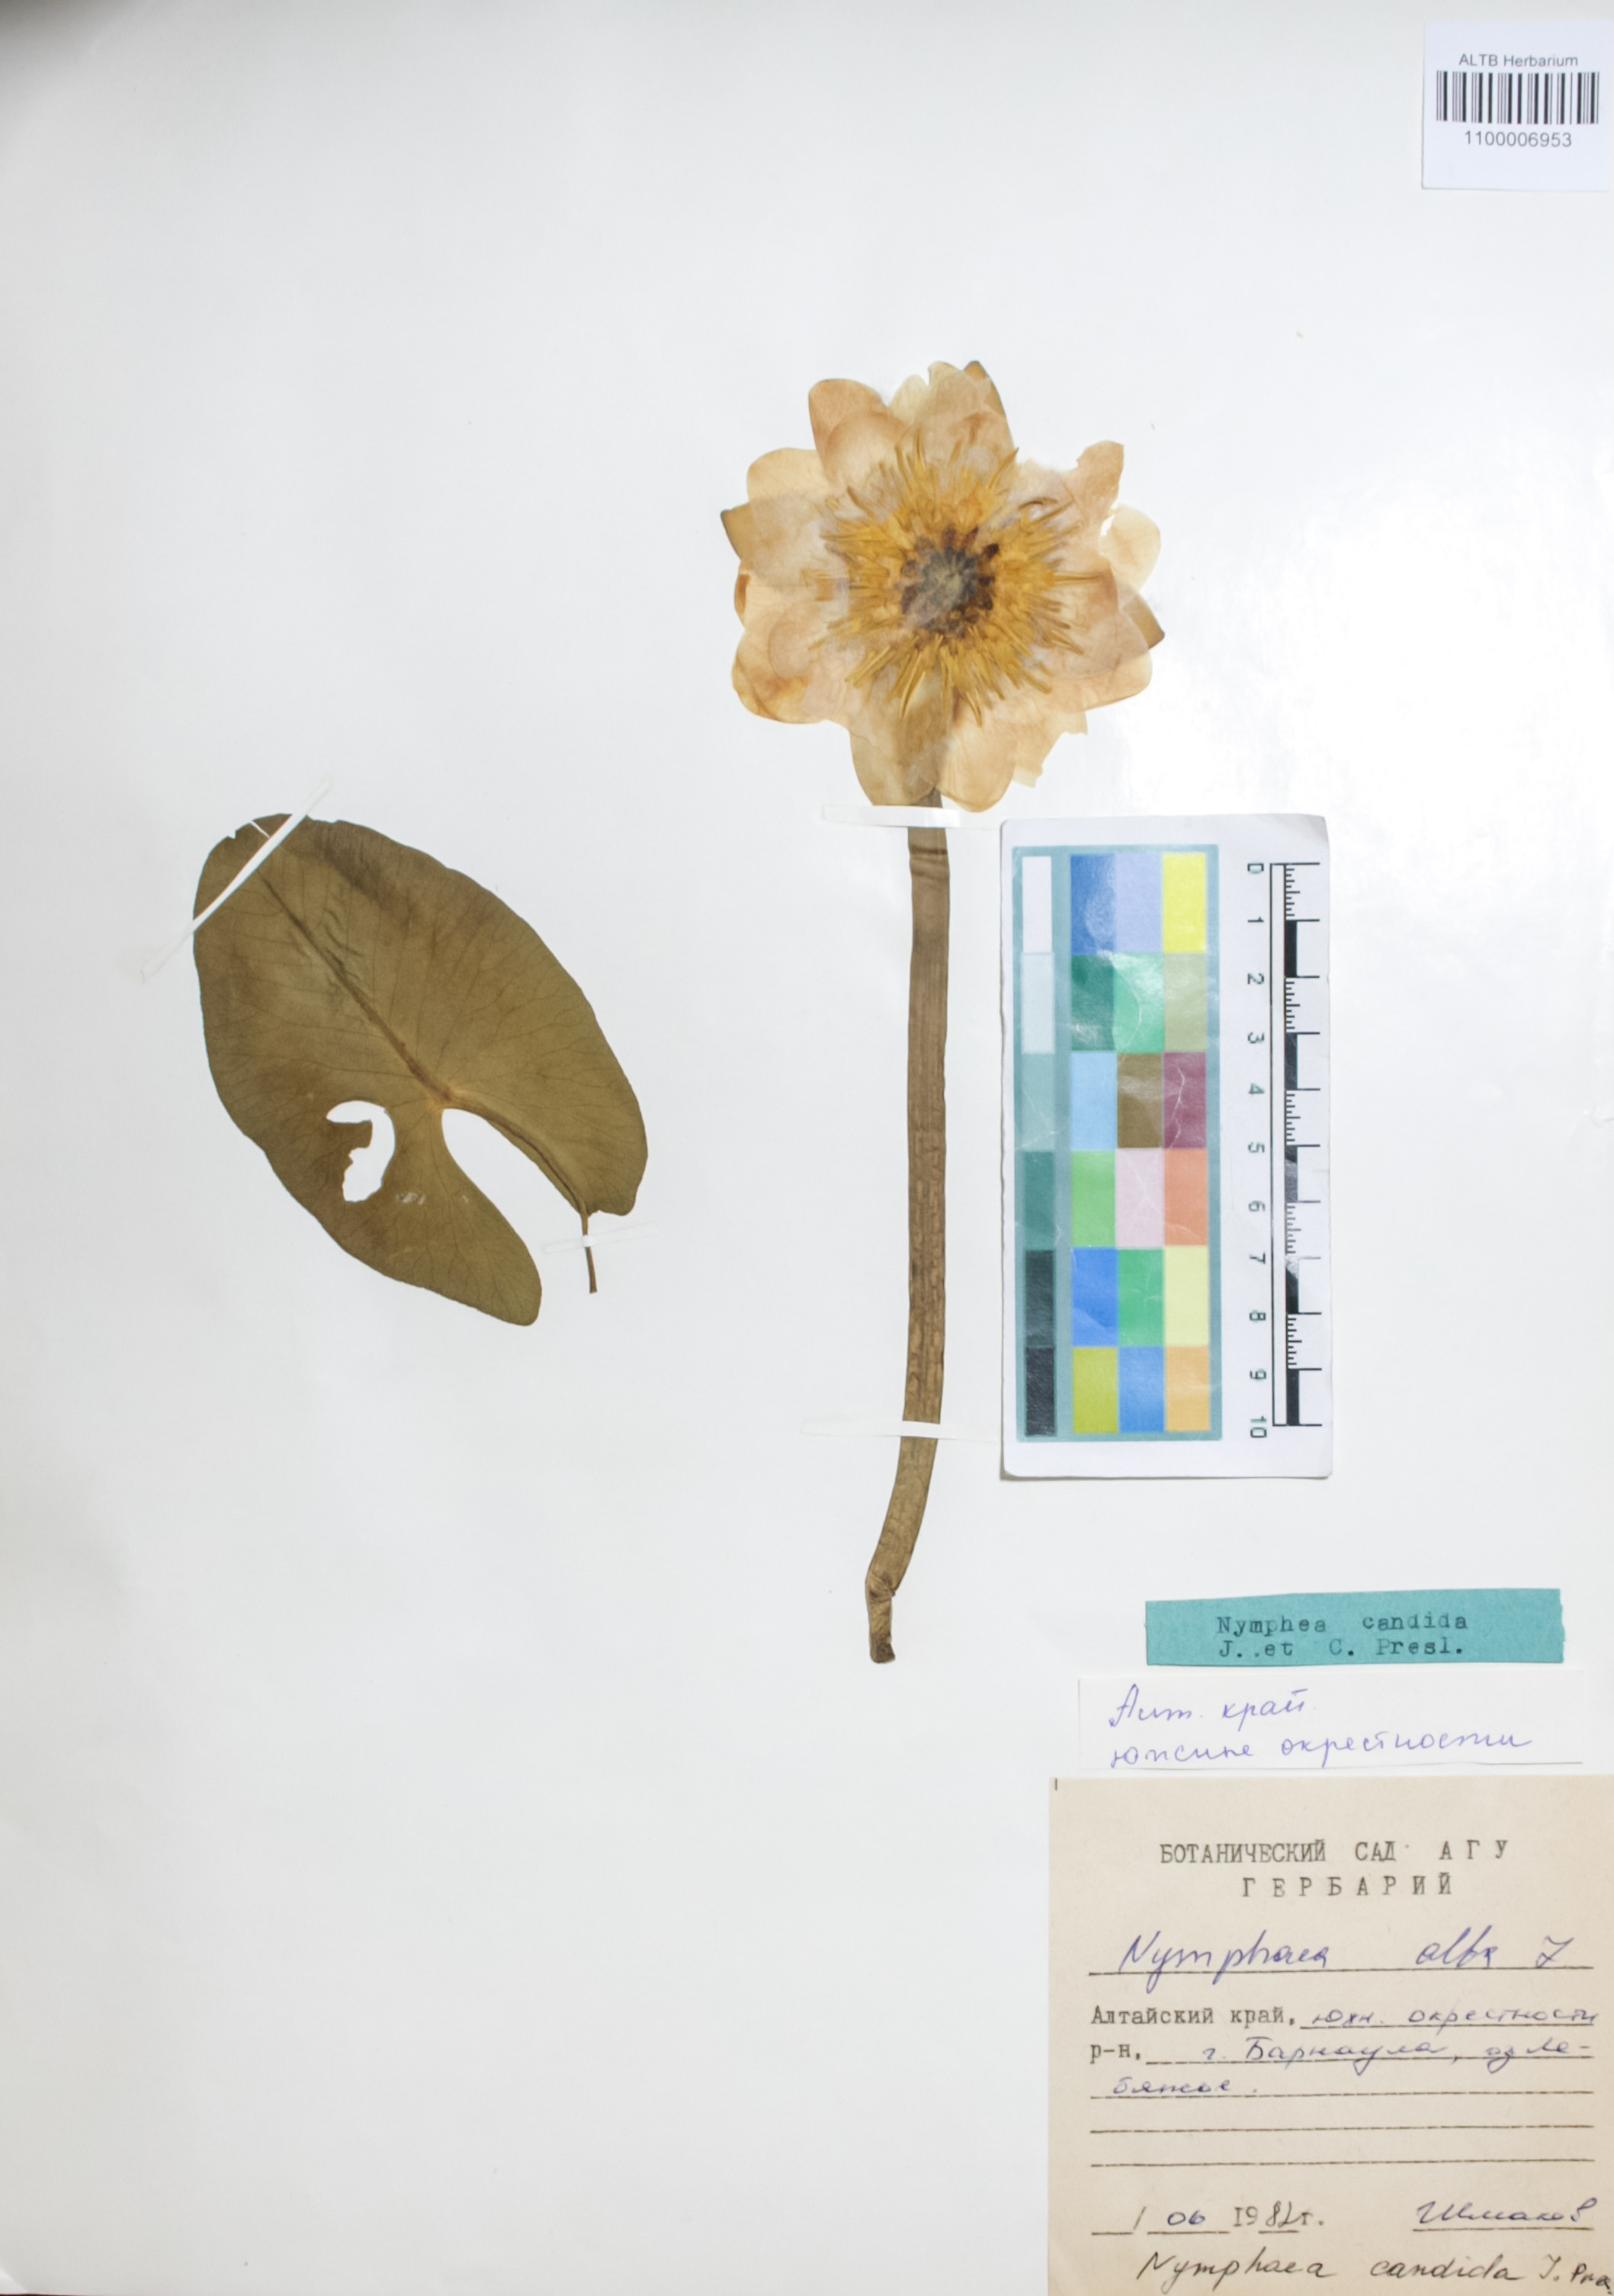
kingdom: Plantae
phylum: Tracheophyta
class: Magnoliopsida
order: Nymphaeales
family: Nymphaeaceae
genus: Nymphaea
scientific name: Nymphaea alba
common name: White water-lily
